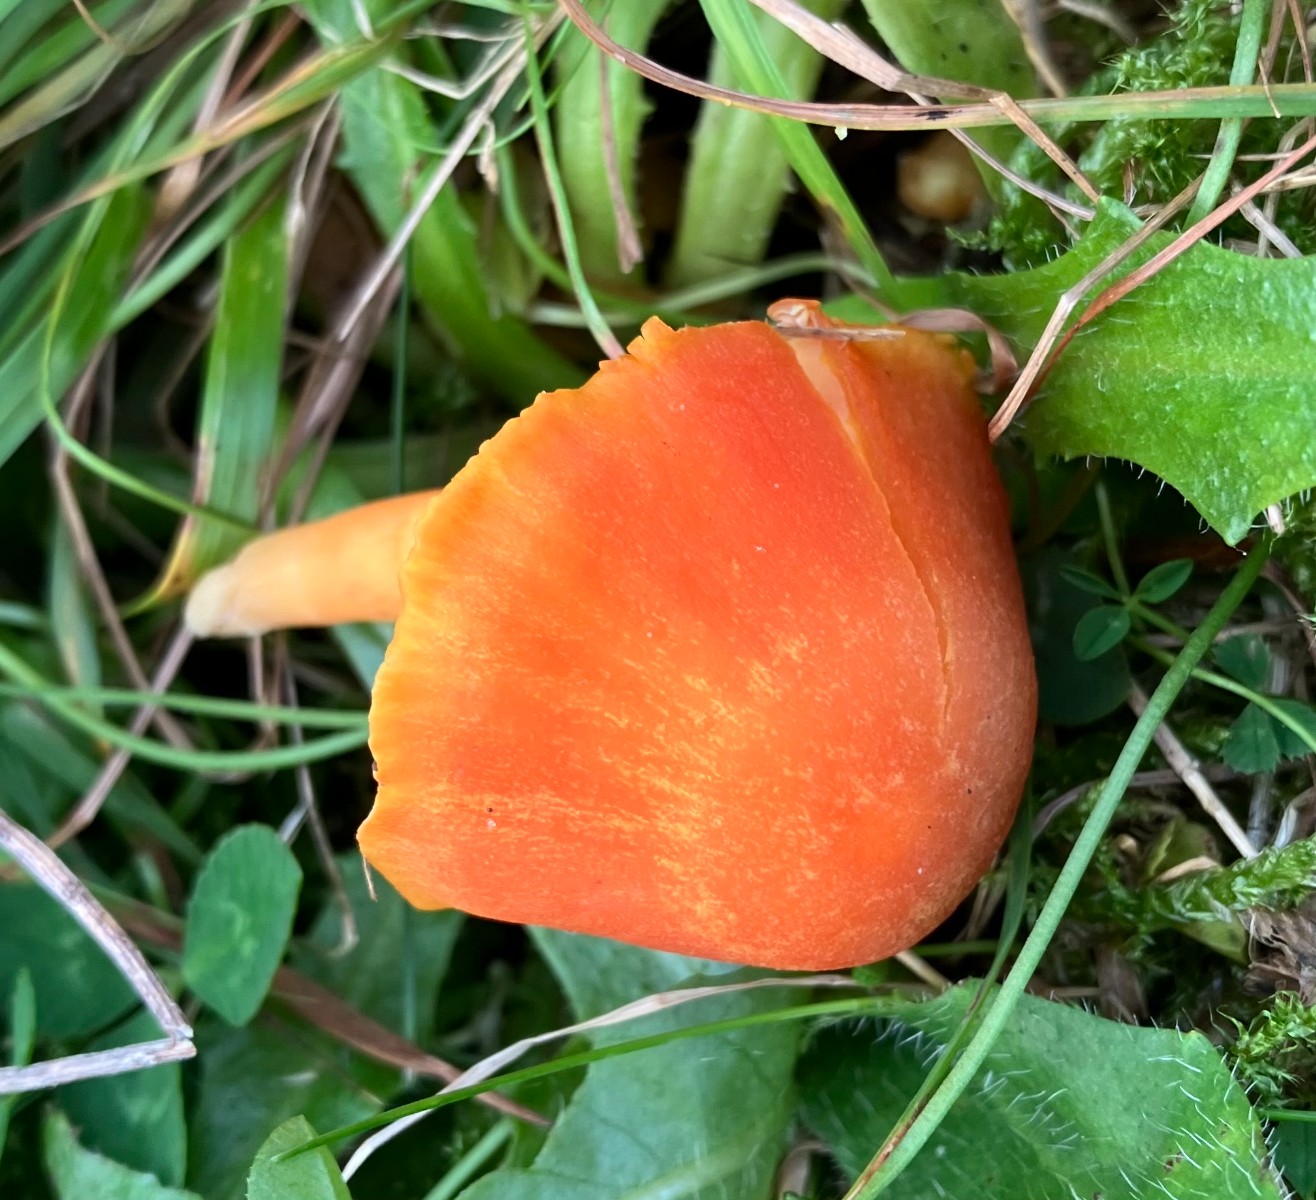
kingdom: Fungi
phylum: Basidiomycota
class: Agaricomycetes
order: Agaricales
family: Hygrophoraceae
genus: Hygrocybe
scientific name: Hygrocybe reidii
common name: honning-vokshat
